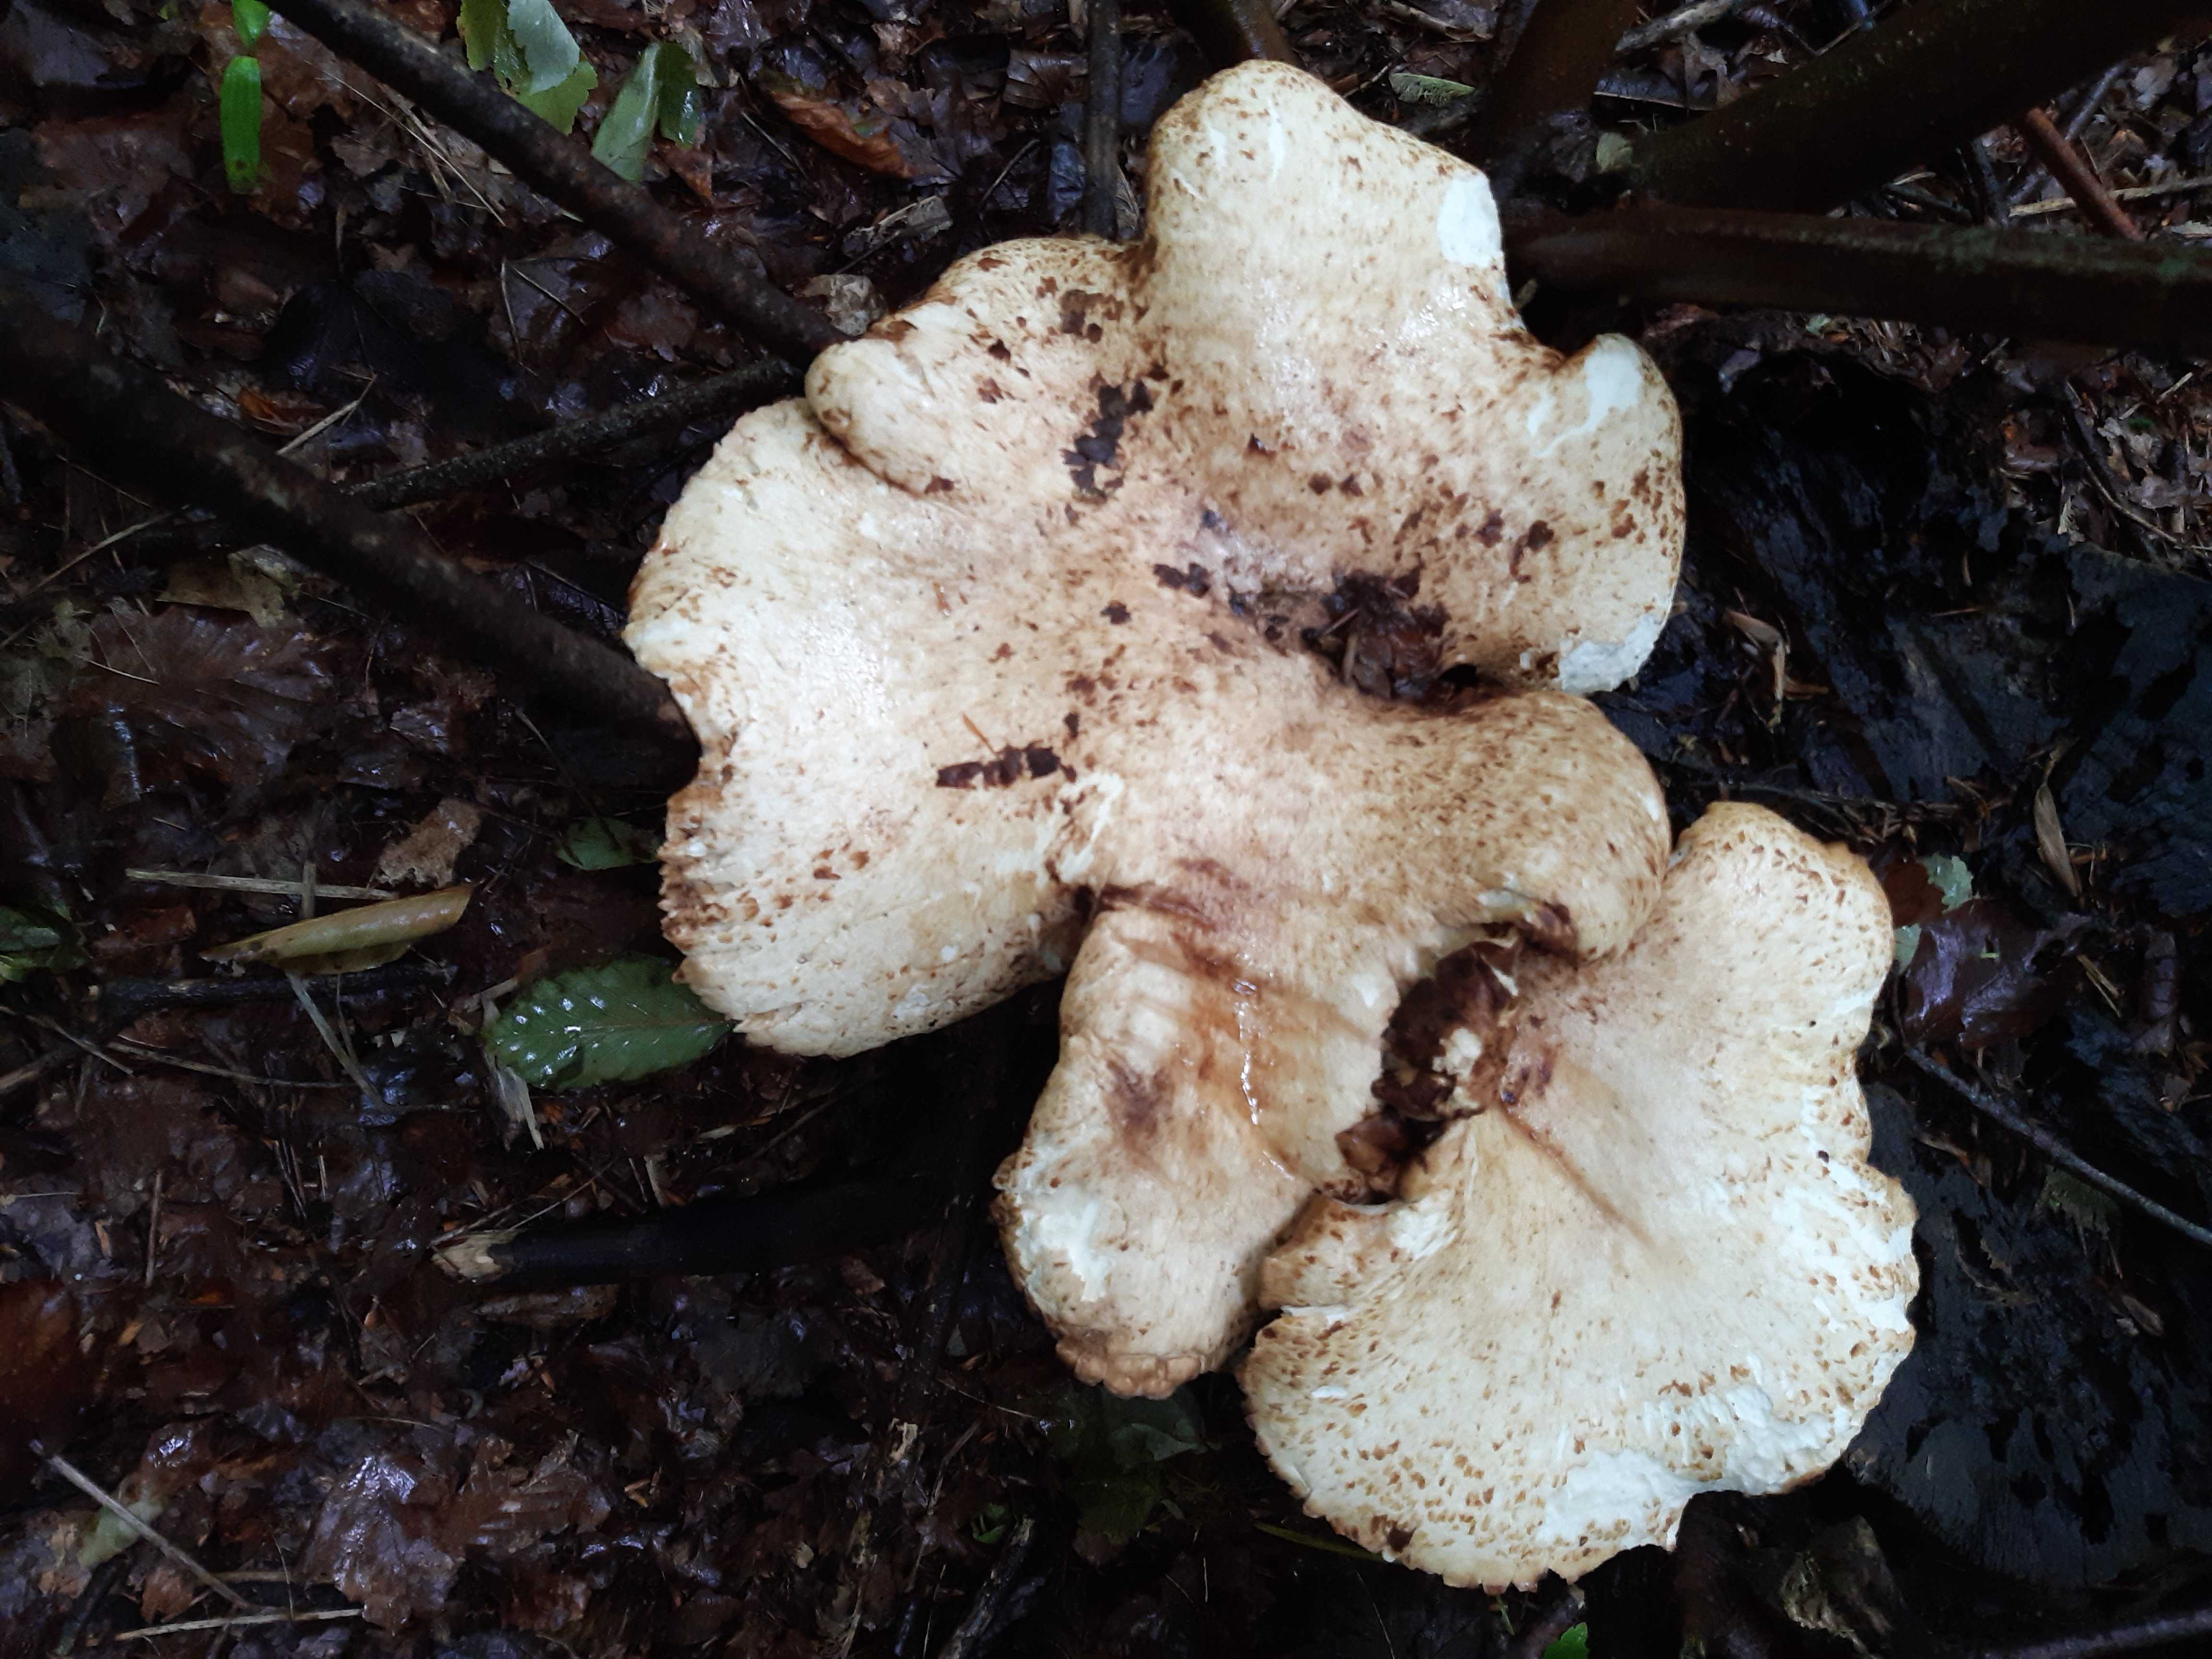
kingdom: Fungi
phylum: Basidiomycota
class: Agaricomycetes
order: Polyporales
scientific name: Polyporales
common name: poresvampordenen
